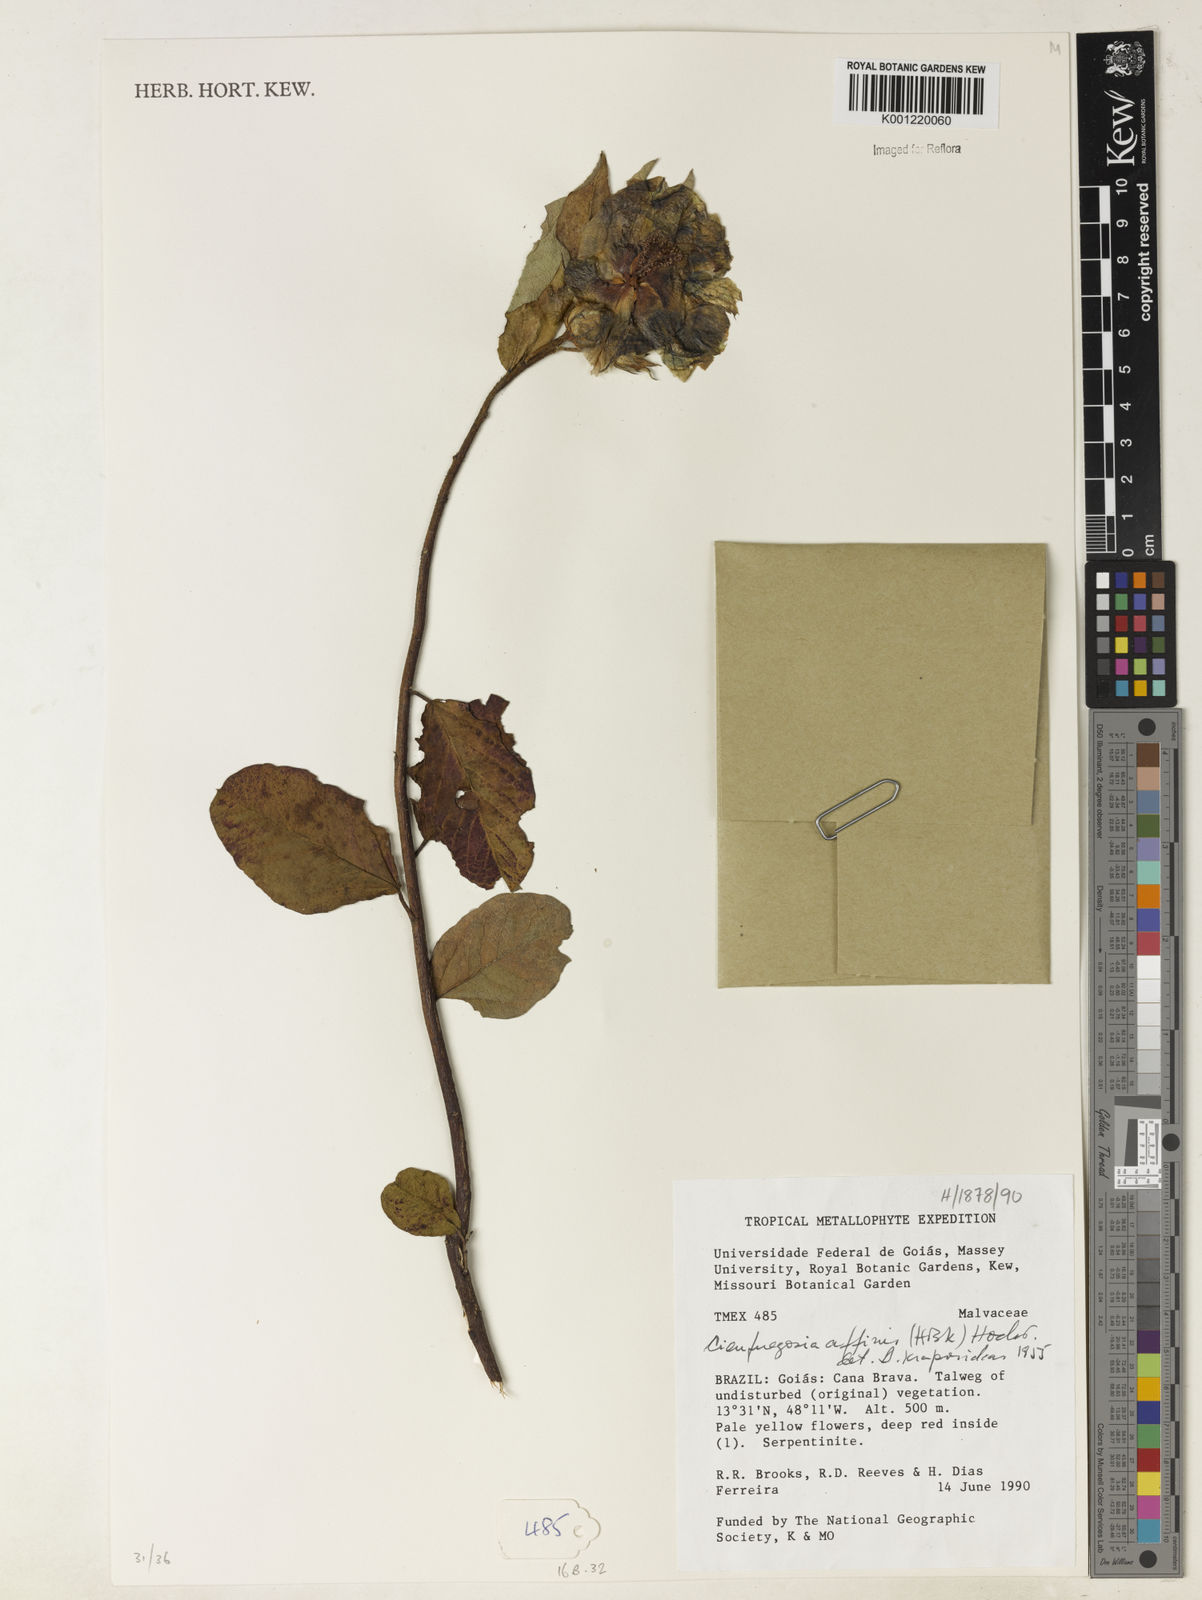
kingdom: Plantae
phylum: Tracheophyta
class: Magnoliopsida
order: Malvales
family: Malvaceae
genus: Cienfuegosia
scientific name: Cienfuegosia affinis
